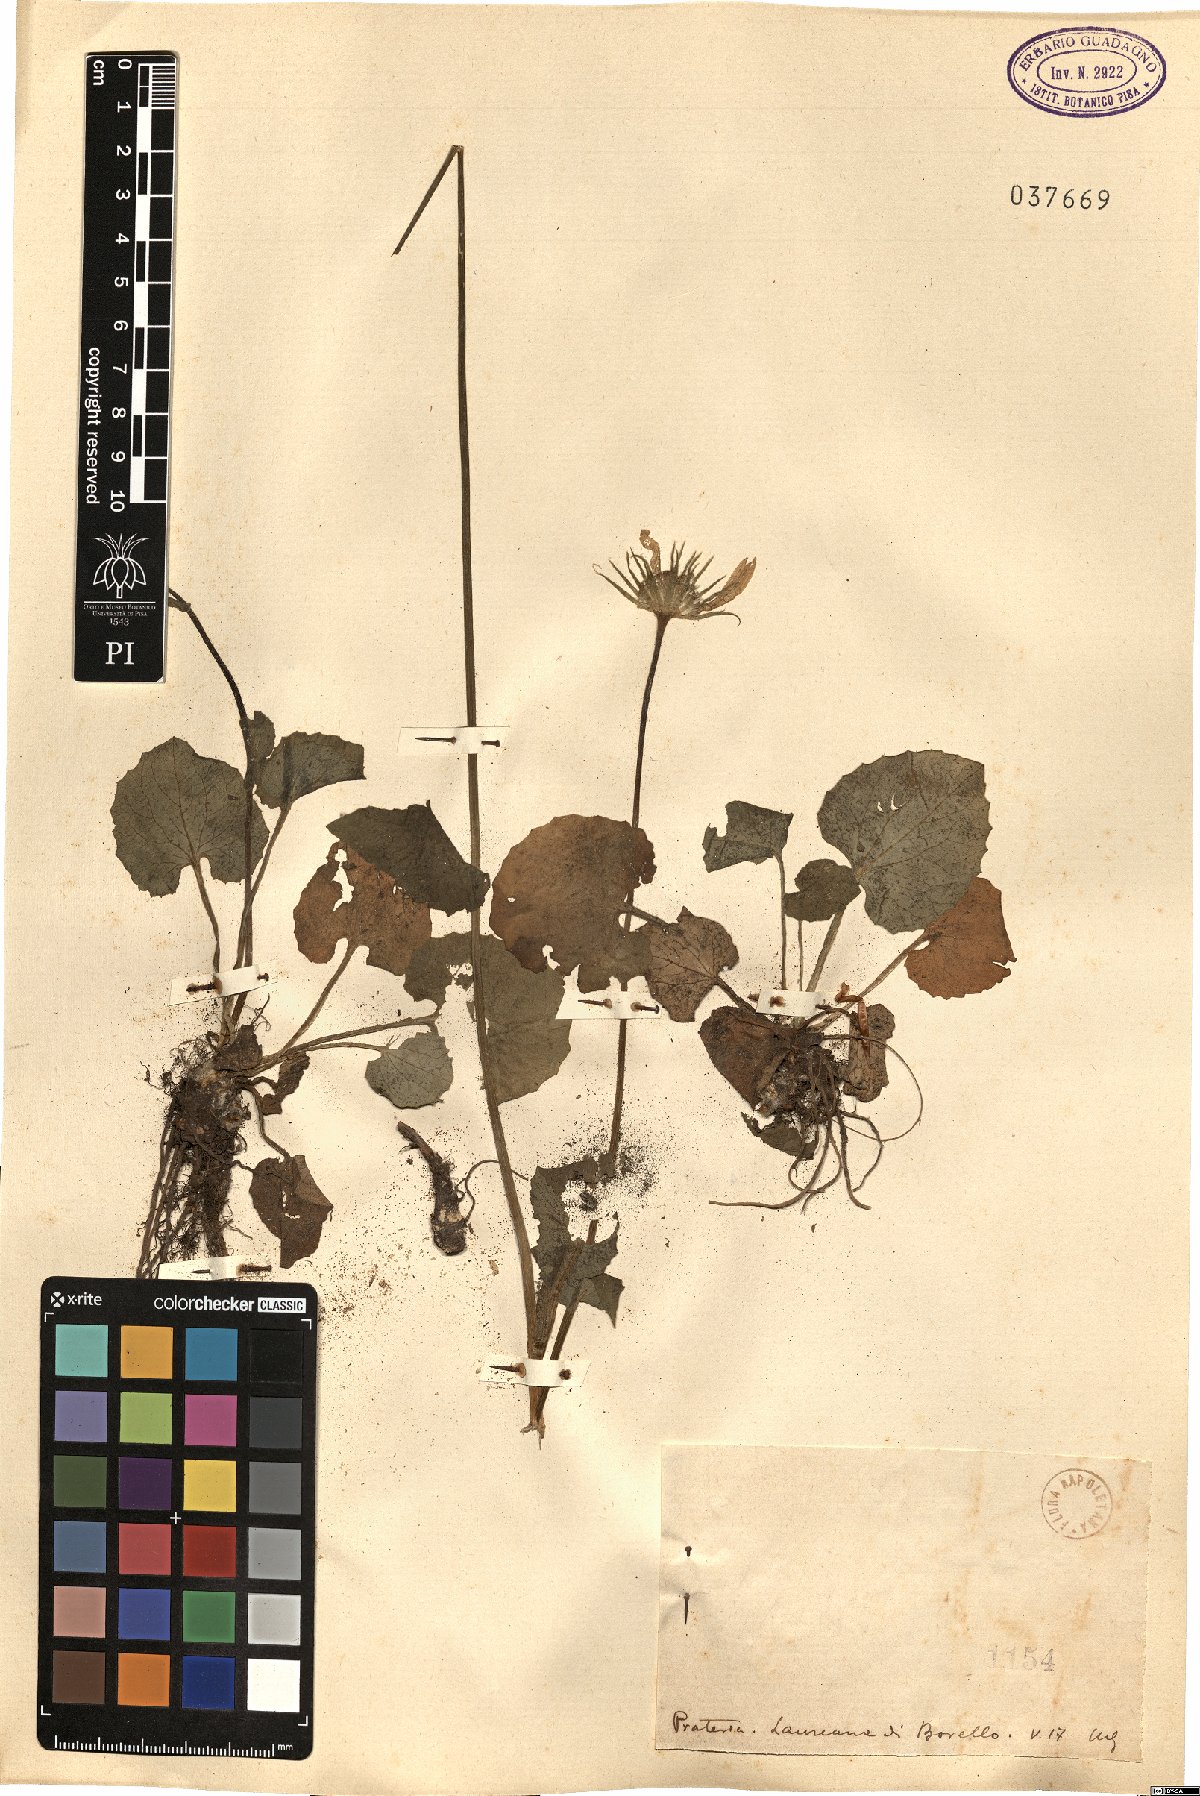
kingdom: Plantae
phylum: Tracheophyta
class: Magnoliopsida
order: Asterales
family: Asteraceae
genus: Doronicum
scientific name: Doronicum
